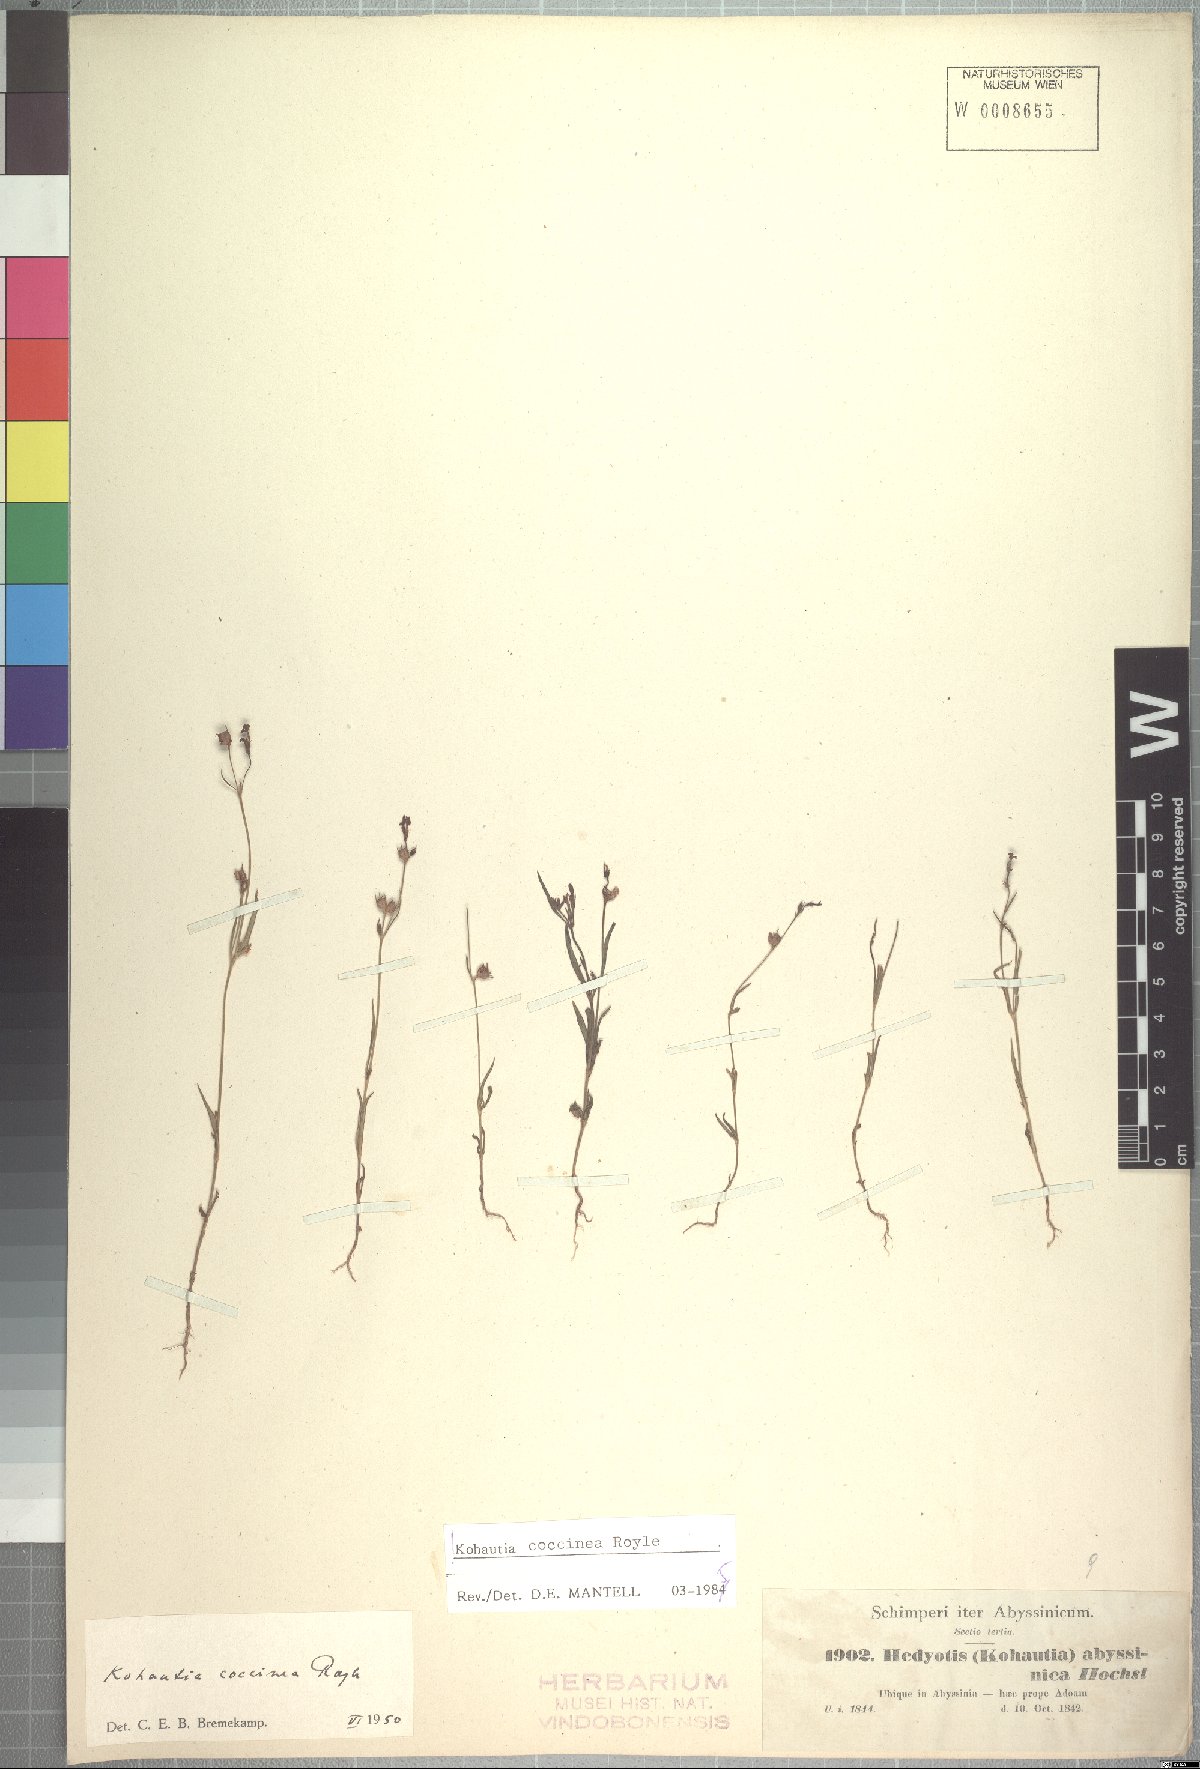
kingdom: Plantae
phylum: Tracheophyta
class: Magnoliopsida
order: Gentianales
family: Rubiaceae
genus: Kohautia
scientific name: Kohautia coccinea
